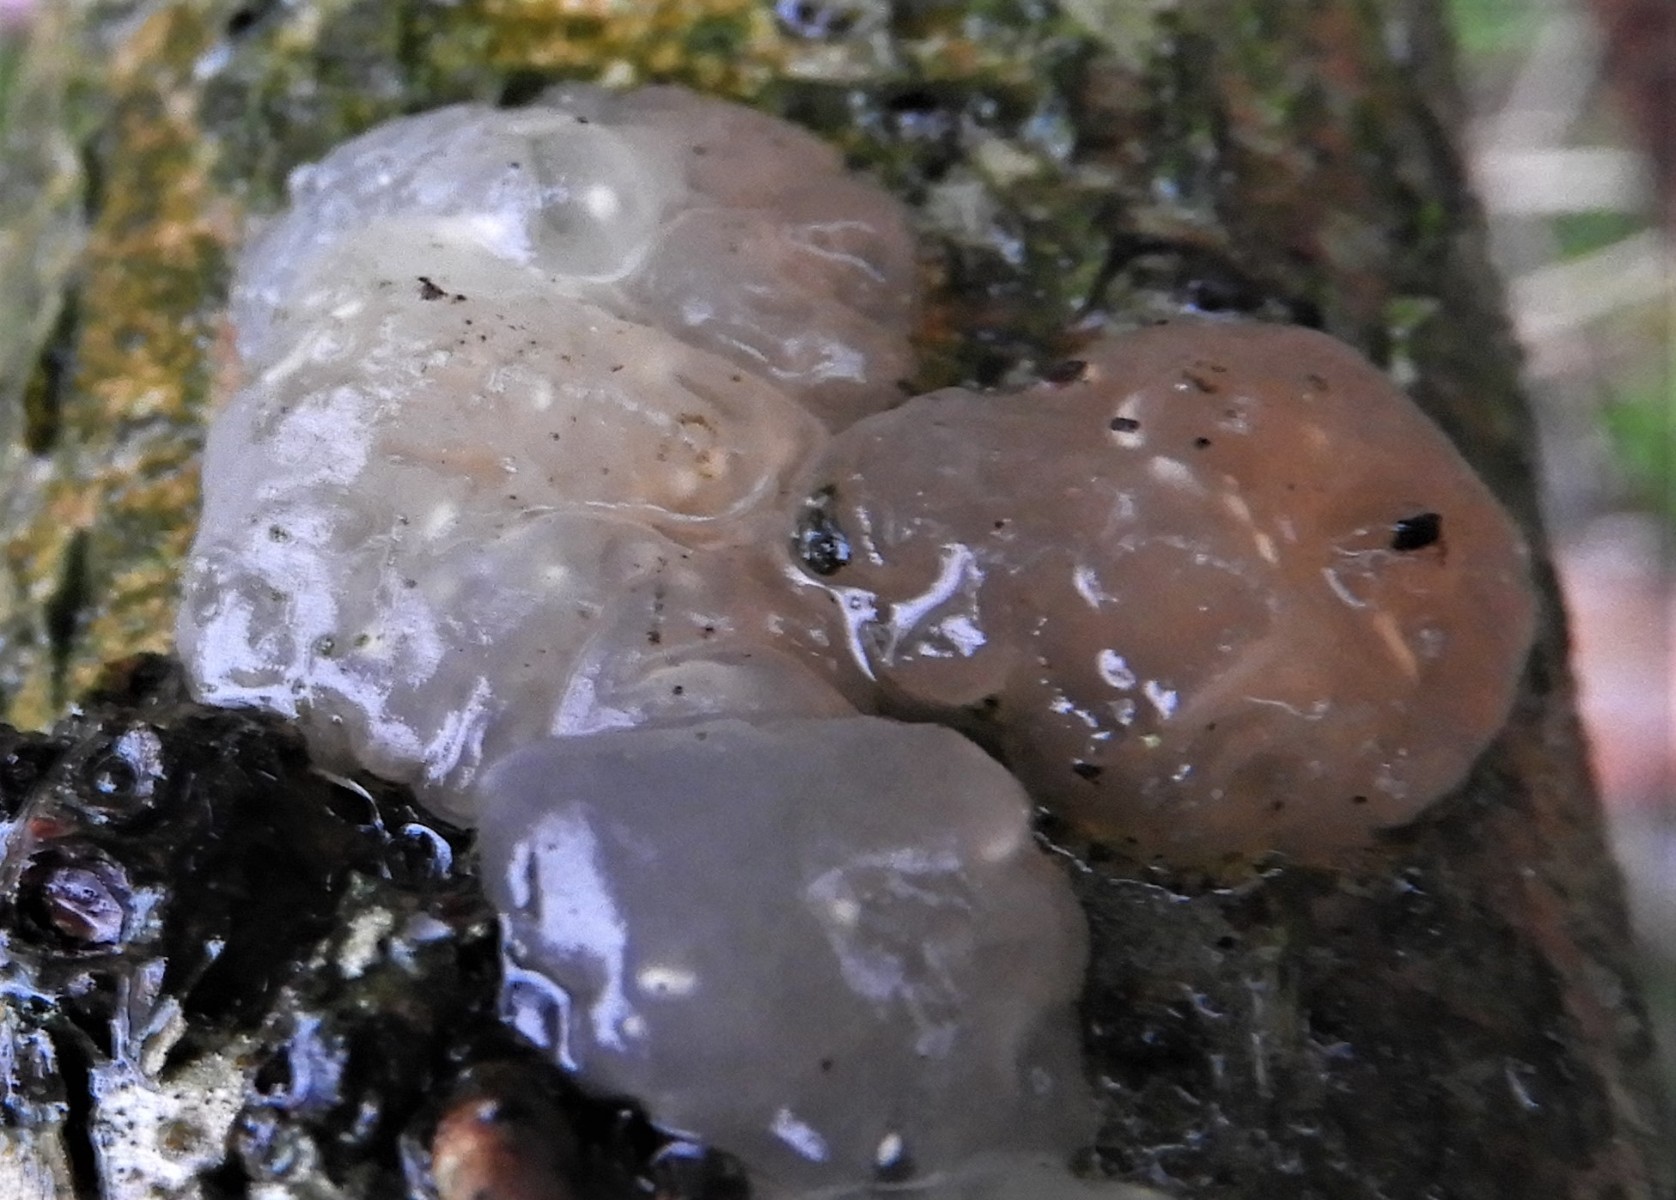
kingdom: Fungi
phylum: Basidiomycota
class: Agaricomycetes
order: Auriculariales
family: Hyaloriaceae
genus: Myxarium
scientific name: Myxarium nucleatum
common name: klar bævretop
